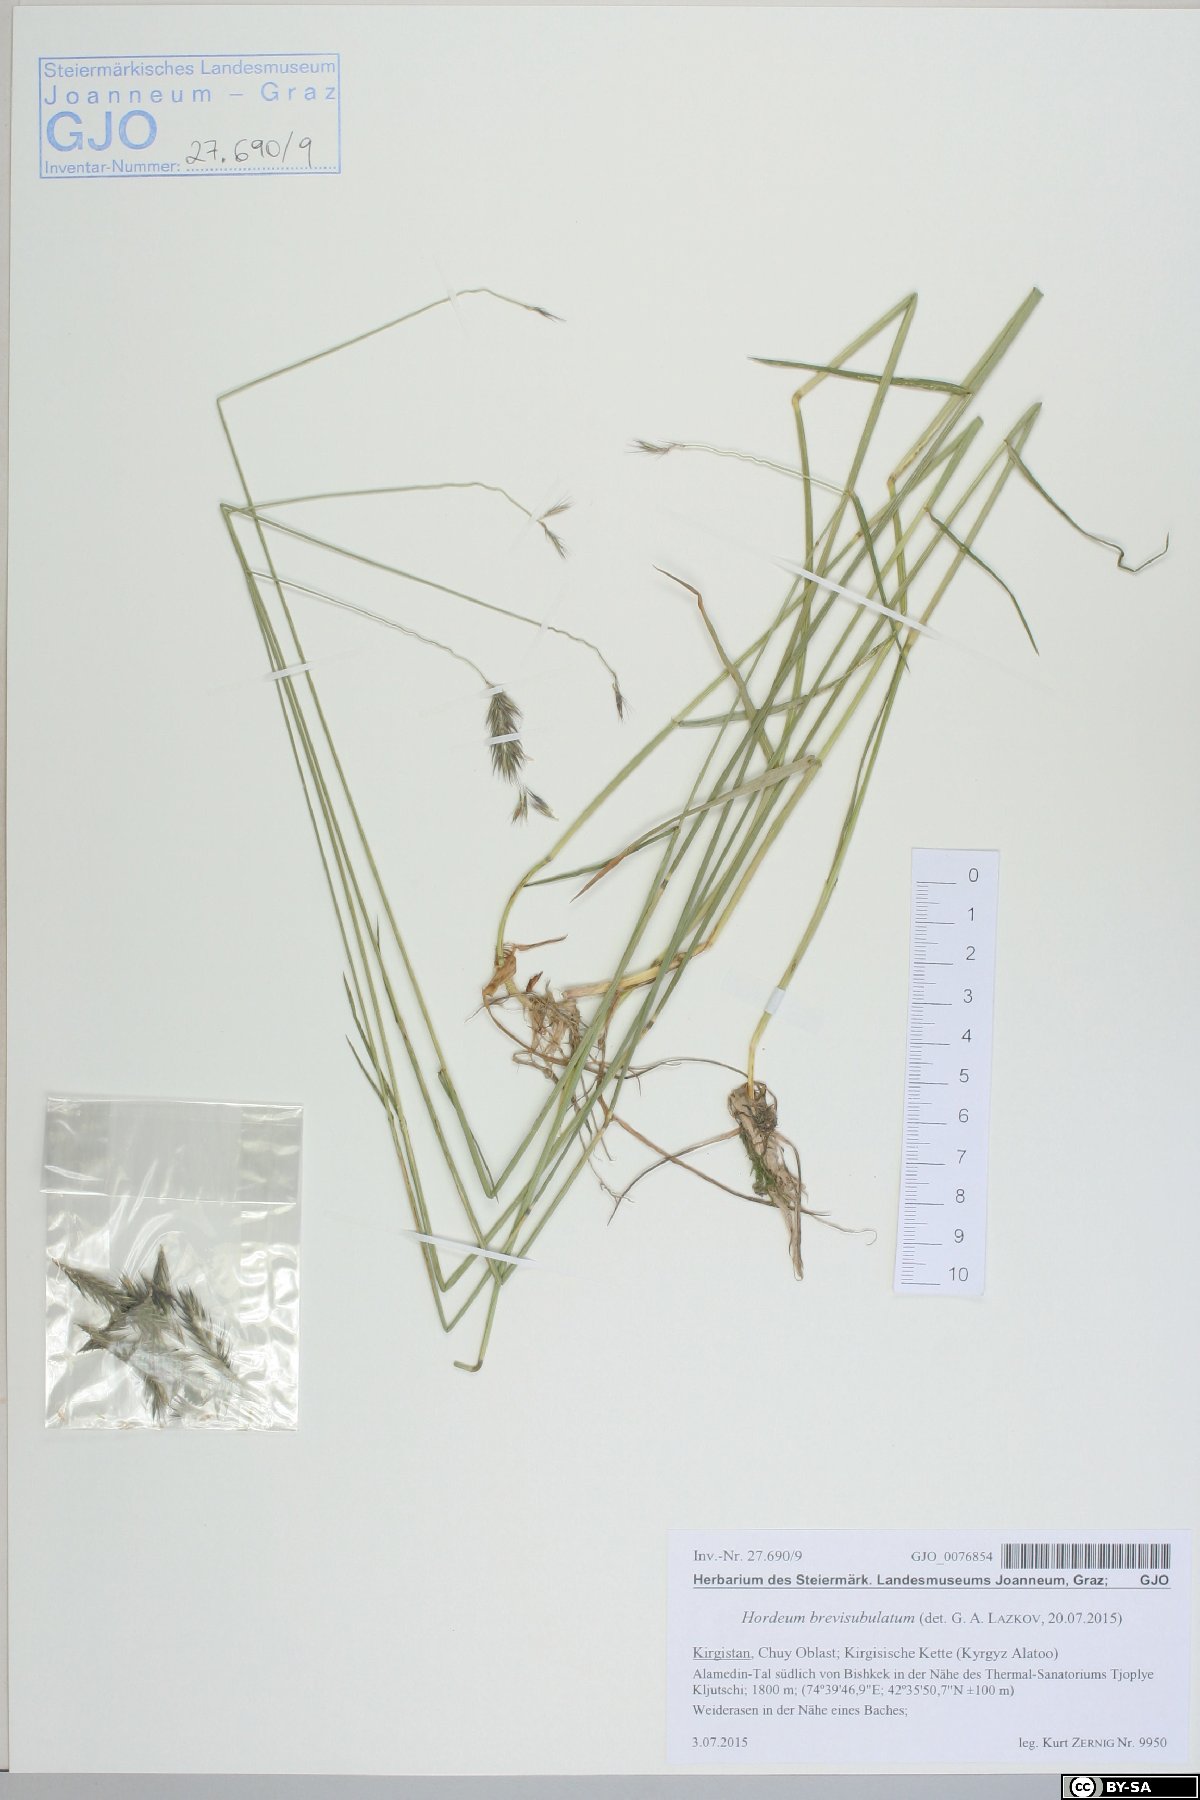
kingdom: Plantae
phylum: Tracheophyta
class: Liliopsida
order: Poales
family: Poaceae
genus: Hordeum
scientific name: Hordeum brevisubulatum
